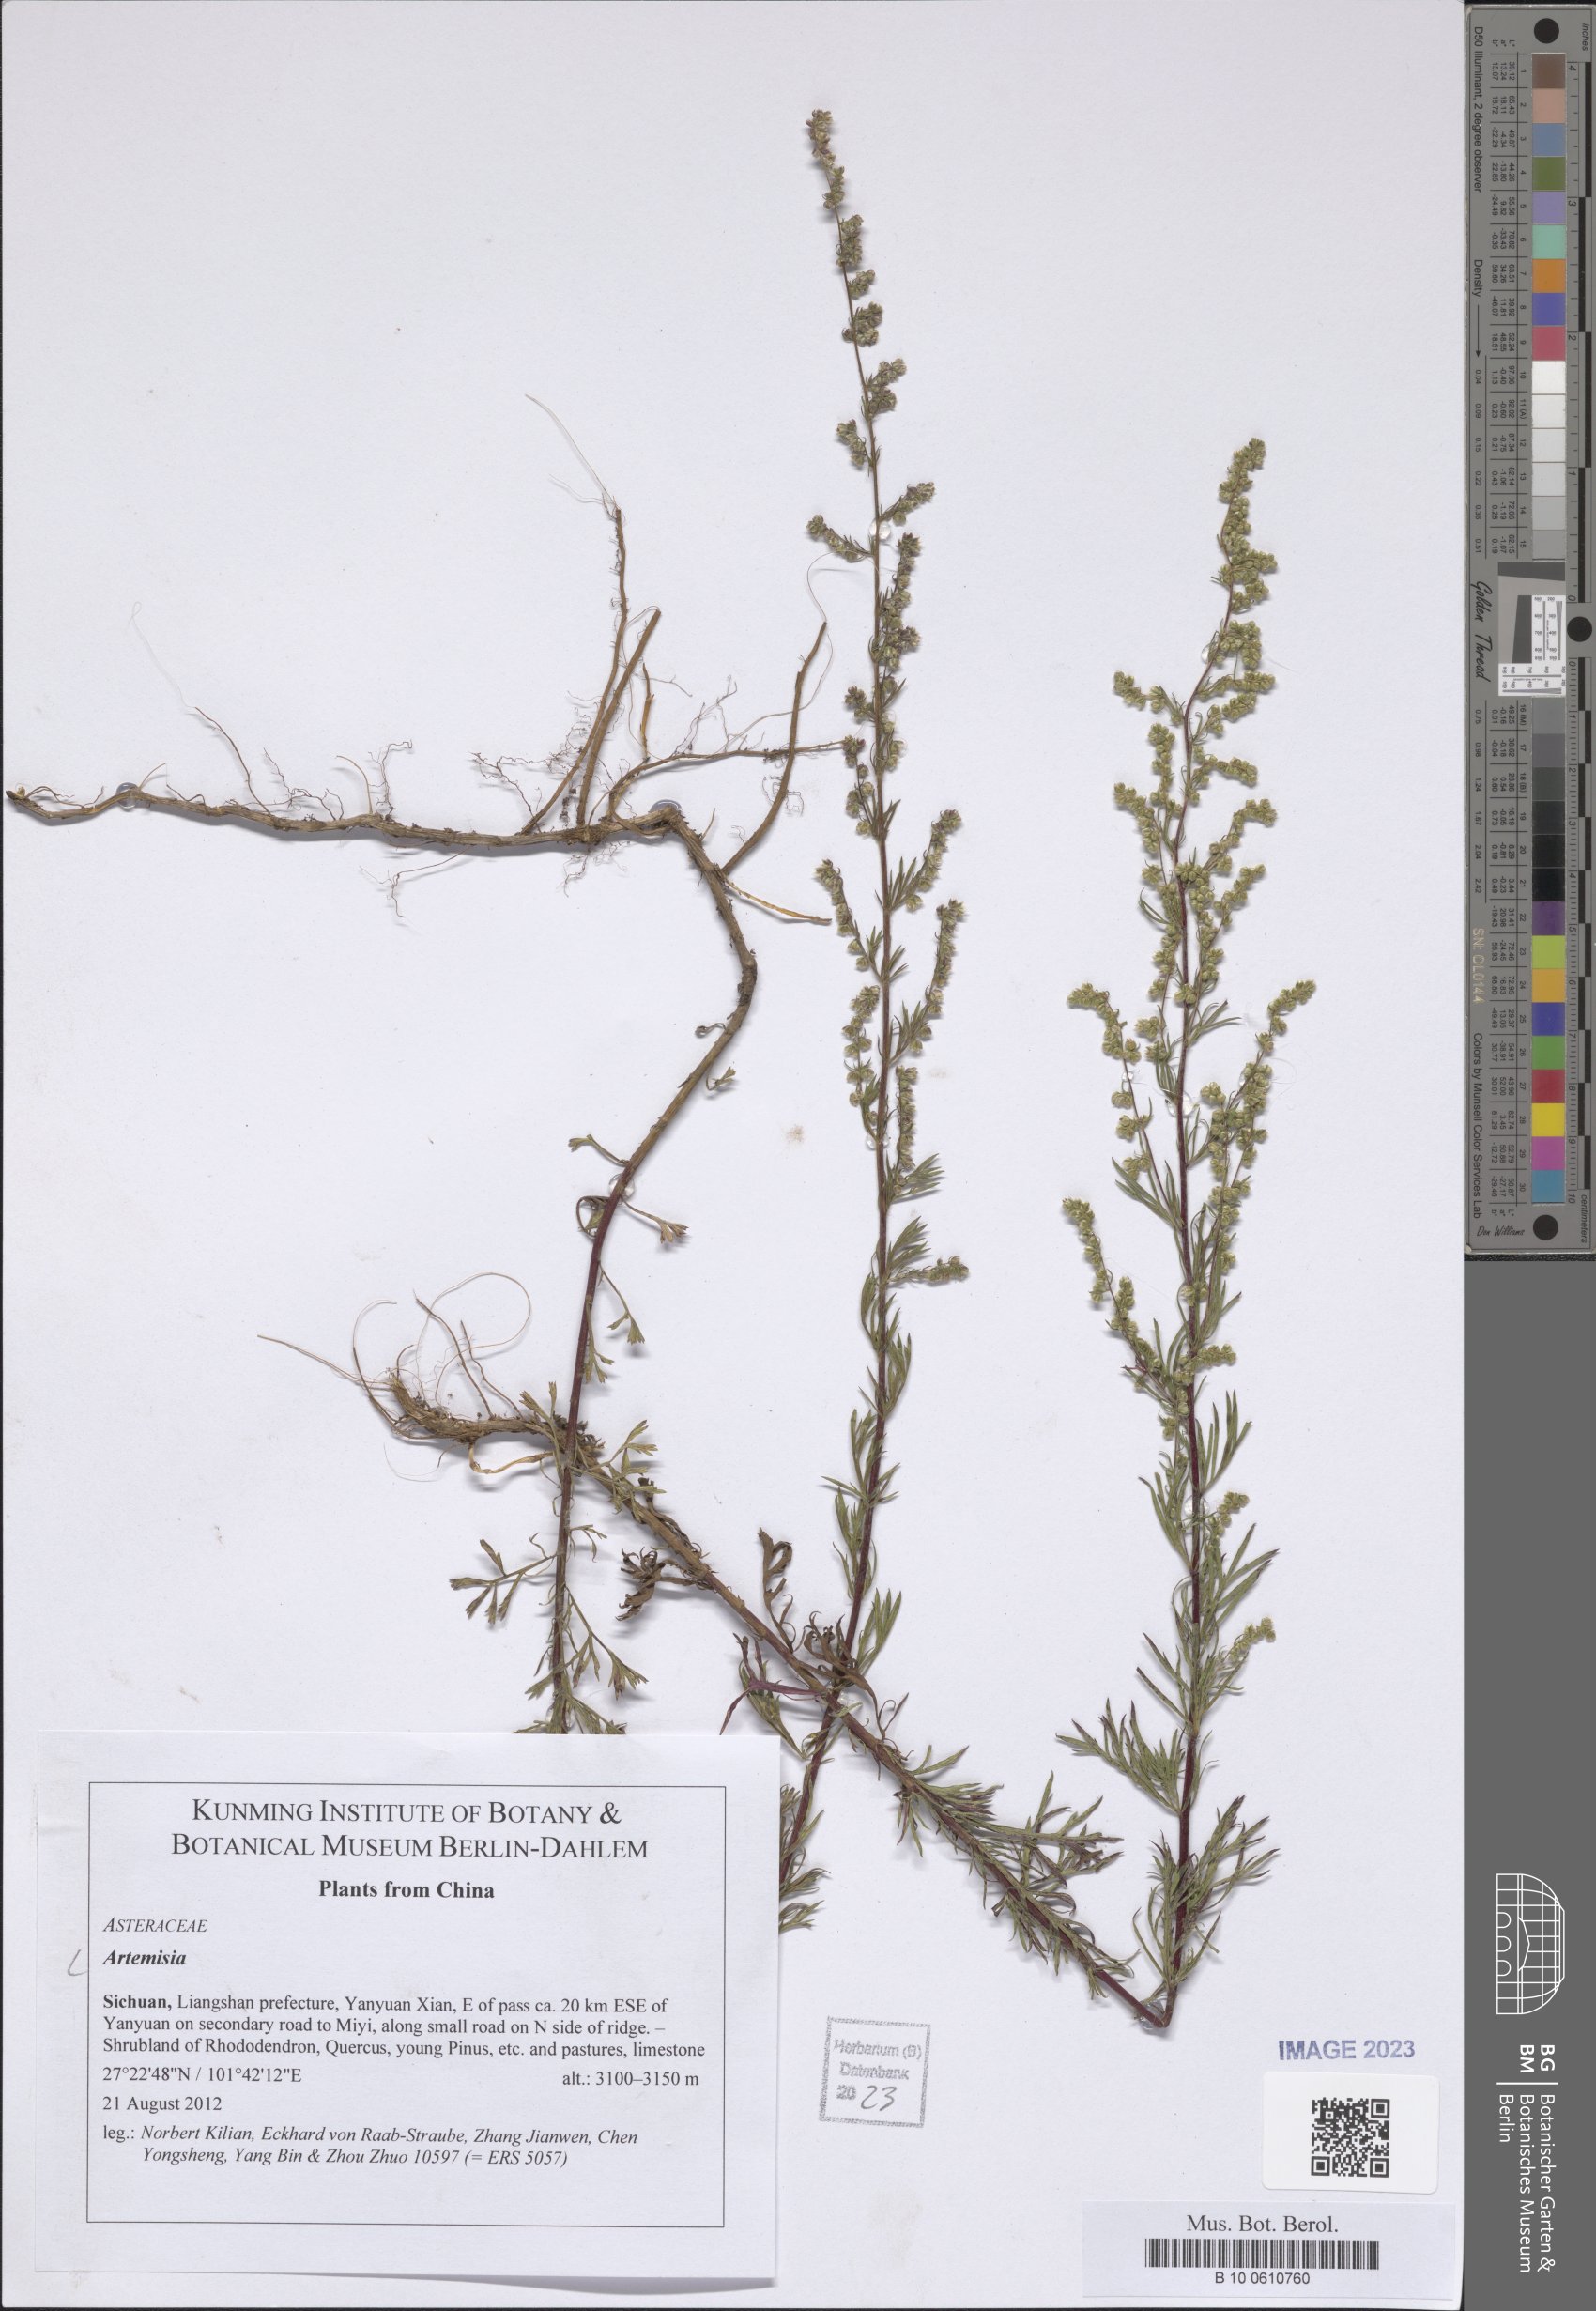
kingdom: Plantae
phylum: Tracheophyta
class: Magnoliopsida
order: Asterales
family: Asteraceae
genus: Artemisia
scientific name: Artemisia
